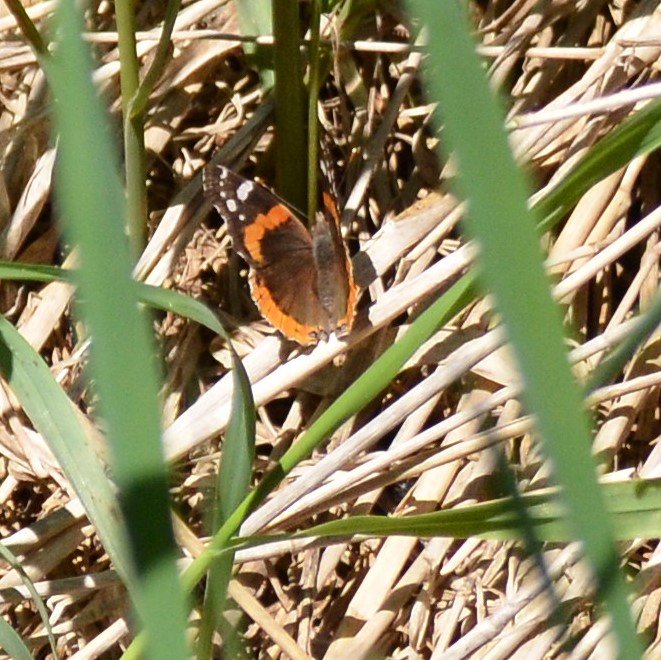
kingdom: Animalia
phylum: Arthropoda
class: Insecta
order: Lepidoptera
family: Nymphalidae
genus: Vanessa
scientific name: Vanessa atalanta
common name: Red Admiral
